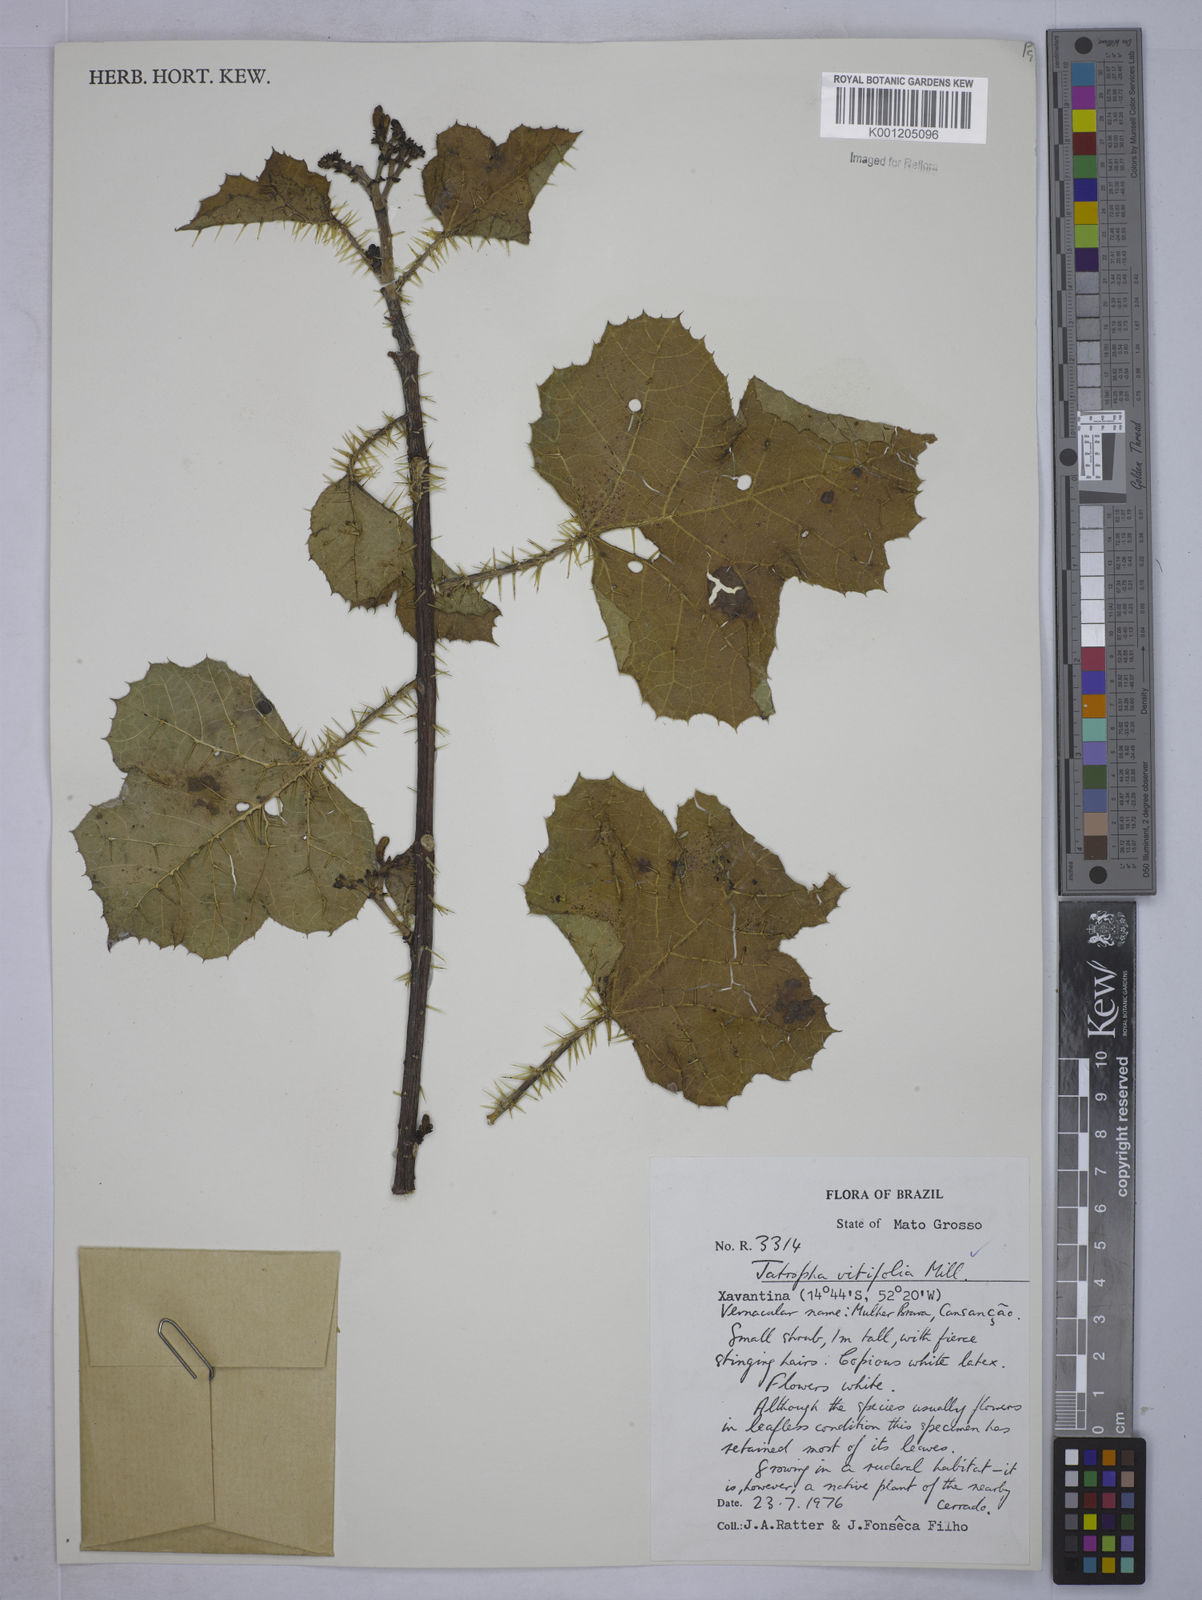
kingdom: Plantae
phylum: Tracheophyta
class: Magnoliopsida
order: Malpighiales
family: Euphorbiaceae
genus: Cnidoscolus
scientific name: Cnidoscolus vitifolius
